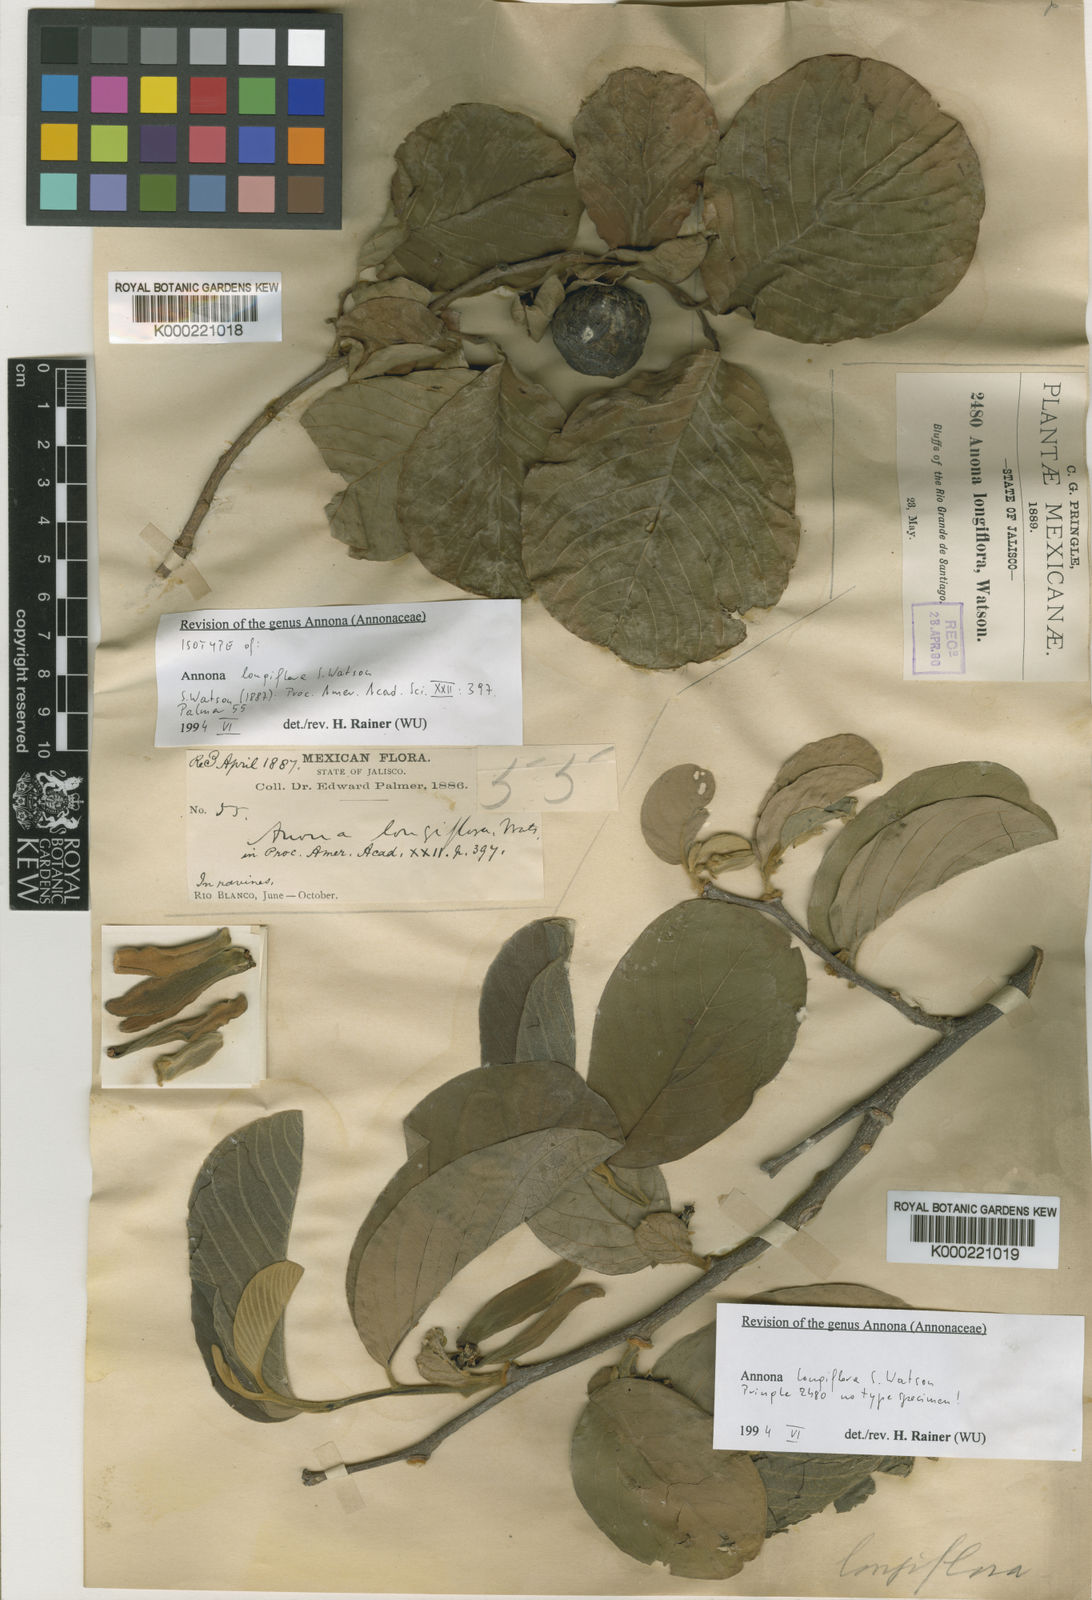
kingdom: Plantae
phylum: Tracheophyta
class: Magnoliopsida
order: Magnoliales
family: Annonaceae
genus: Annona
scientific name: Annona longiflora
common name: Wild cherimoya of jalisco
